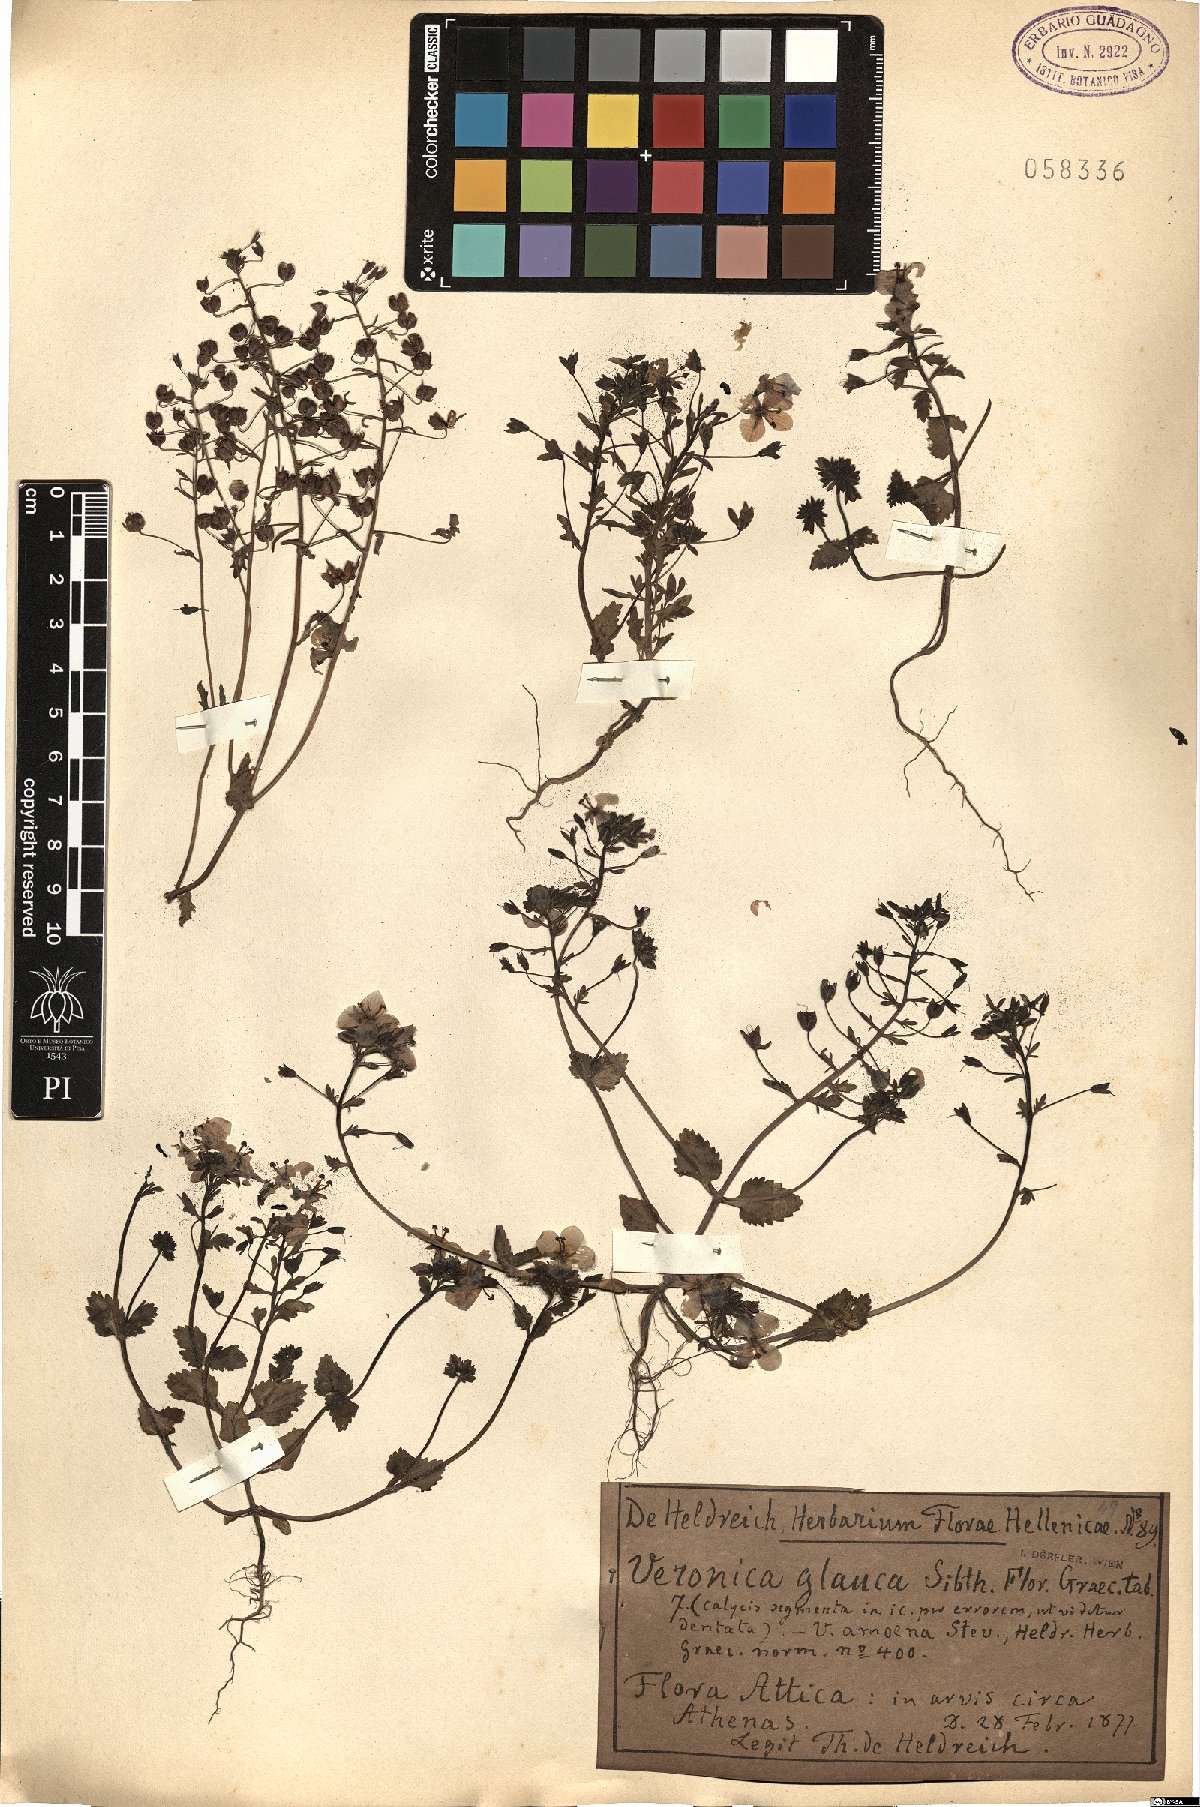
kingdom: Plantae
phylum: Tracheophyta
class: Magnoliopsida
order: Lamiales
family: Plantaginaceae
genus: Veronica
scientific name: Veronica glauca
